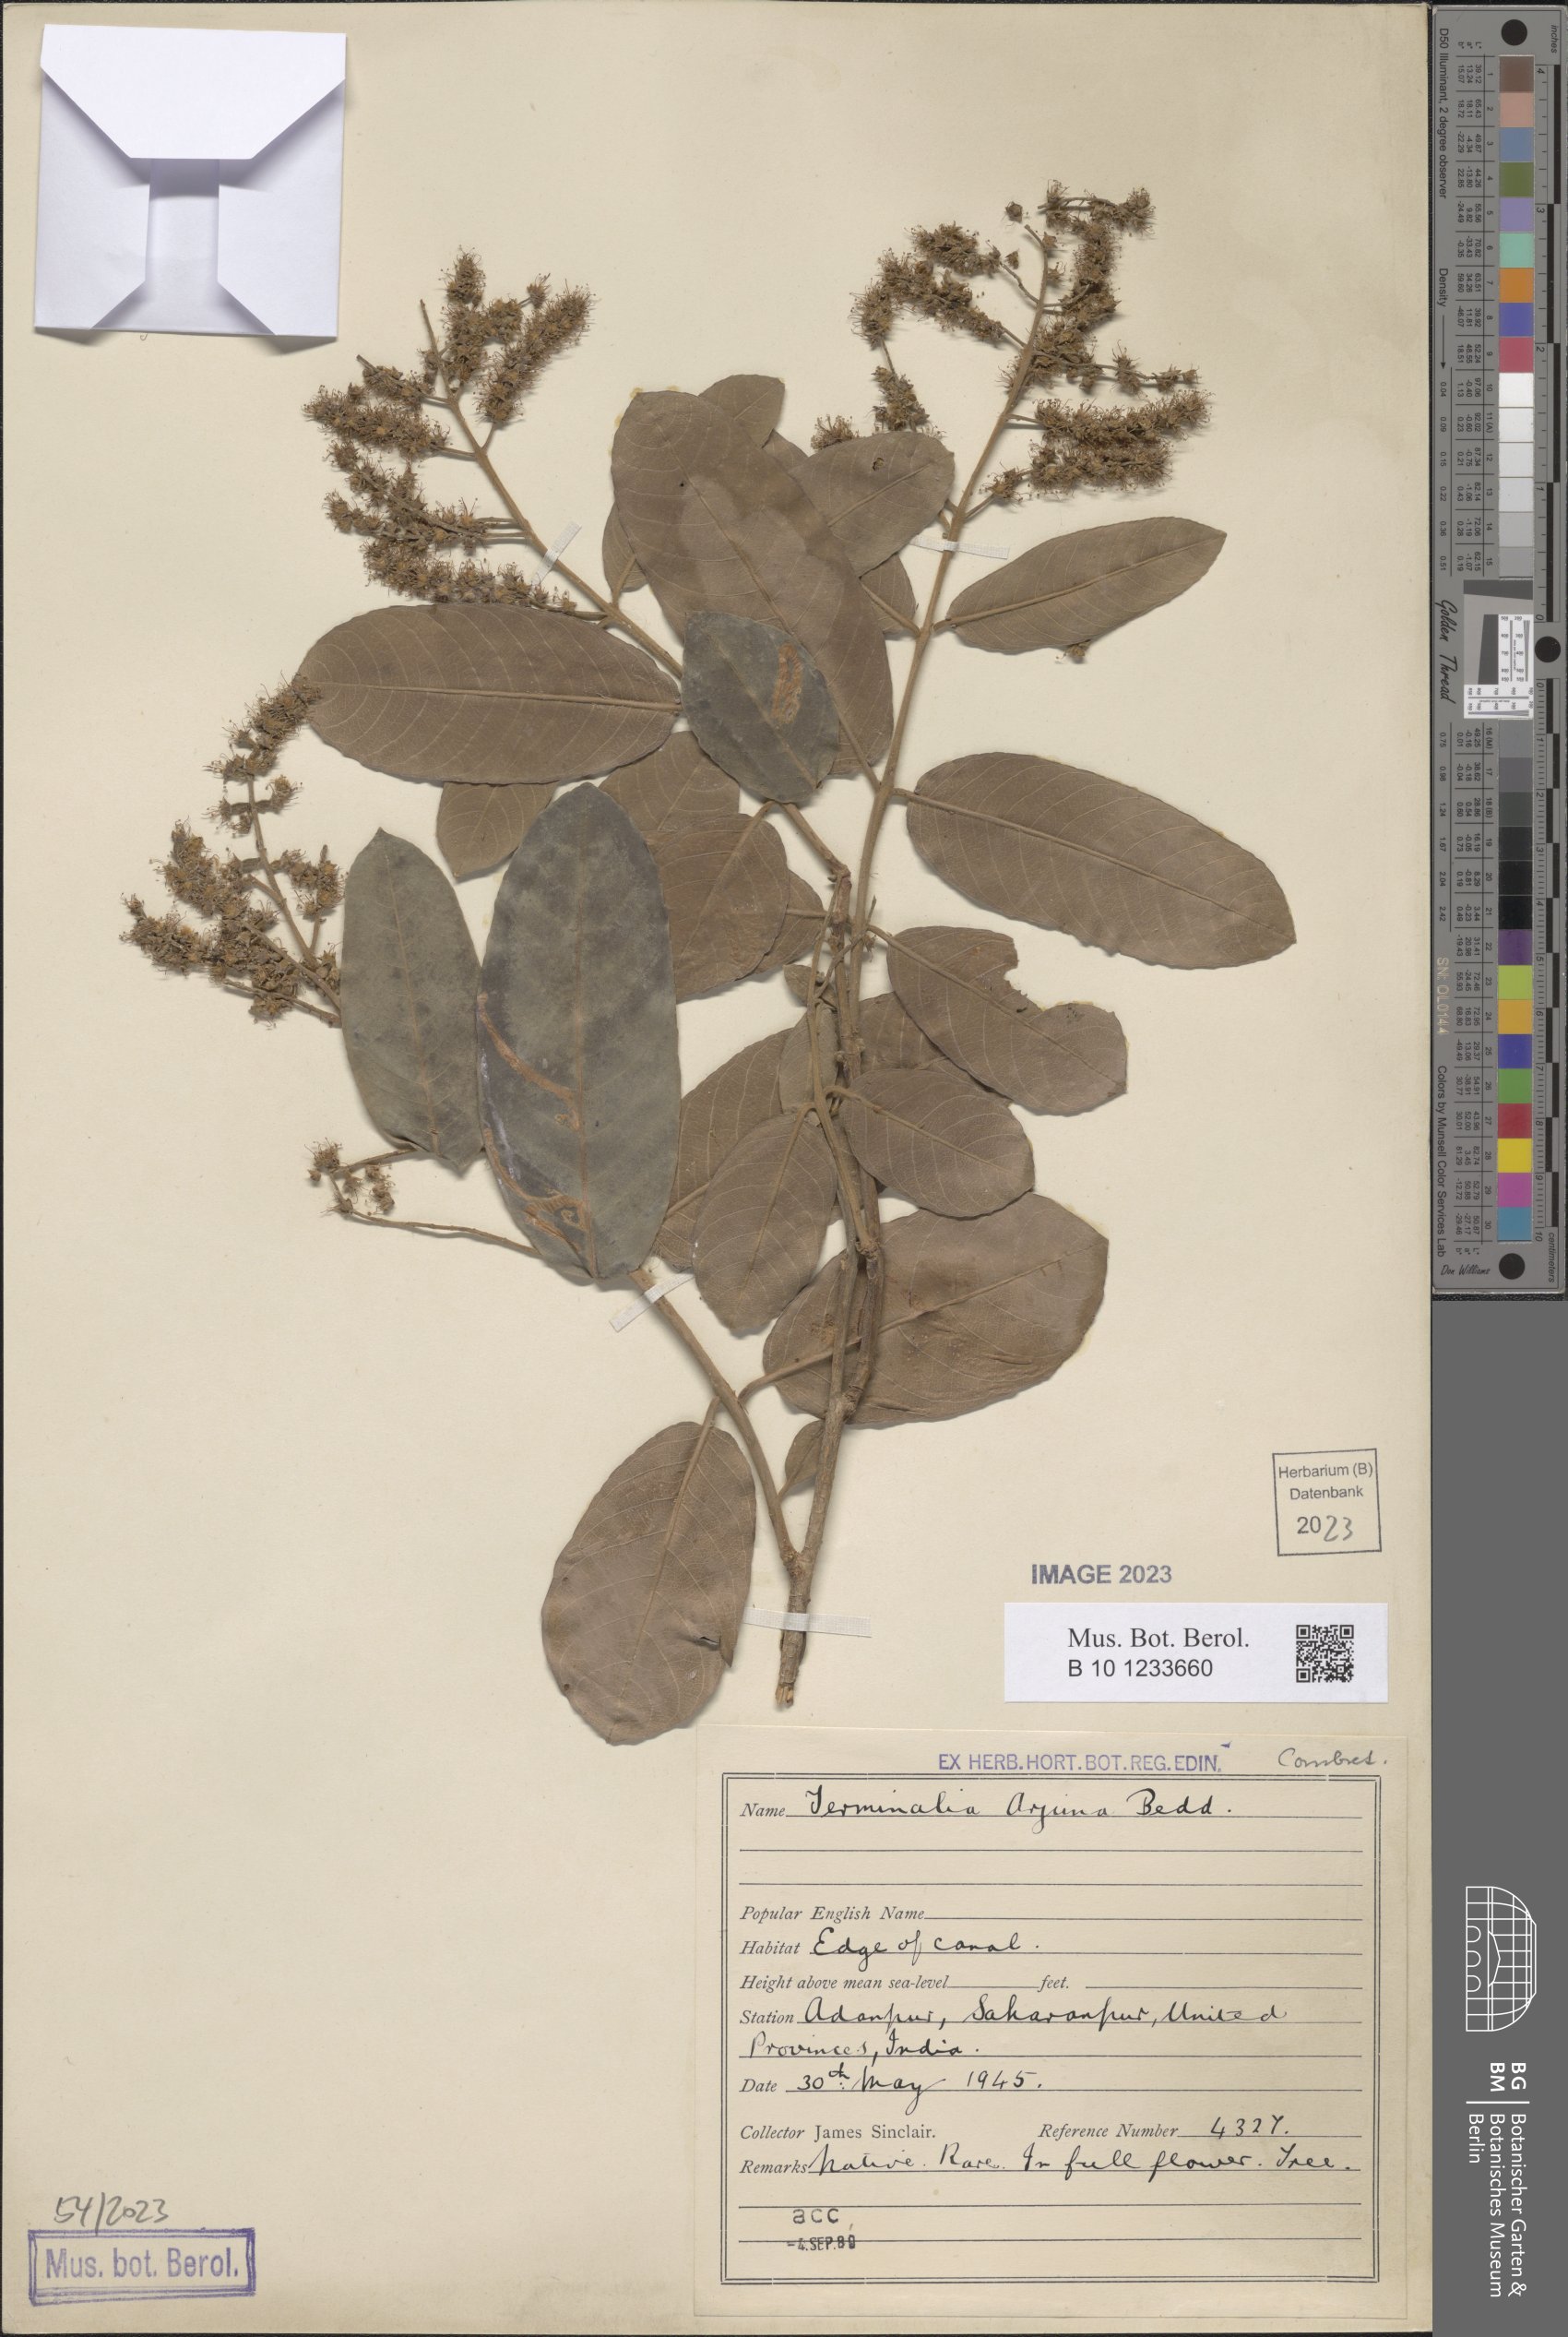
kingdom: Plantae
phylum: Tracheophyta
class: Magnoliopsida
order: Myrtales
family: Combretaceae
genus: Terminalia
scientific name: Terminalia arjuna
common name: Arjun
